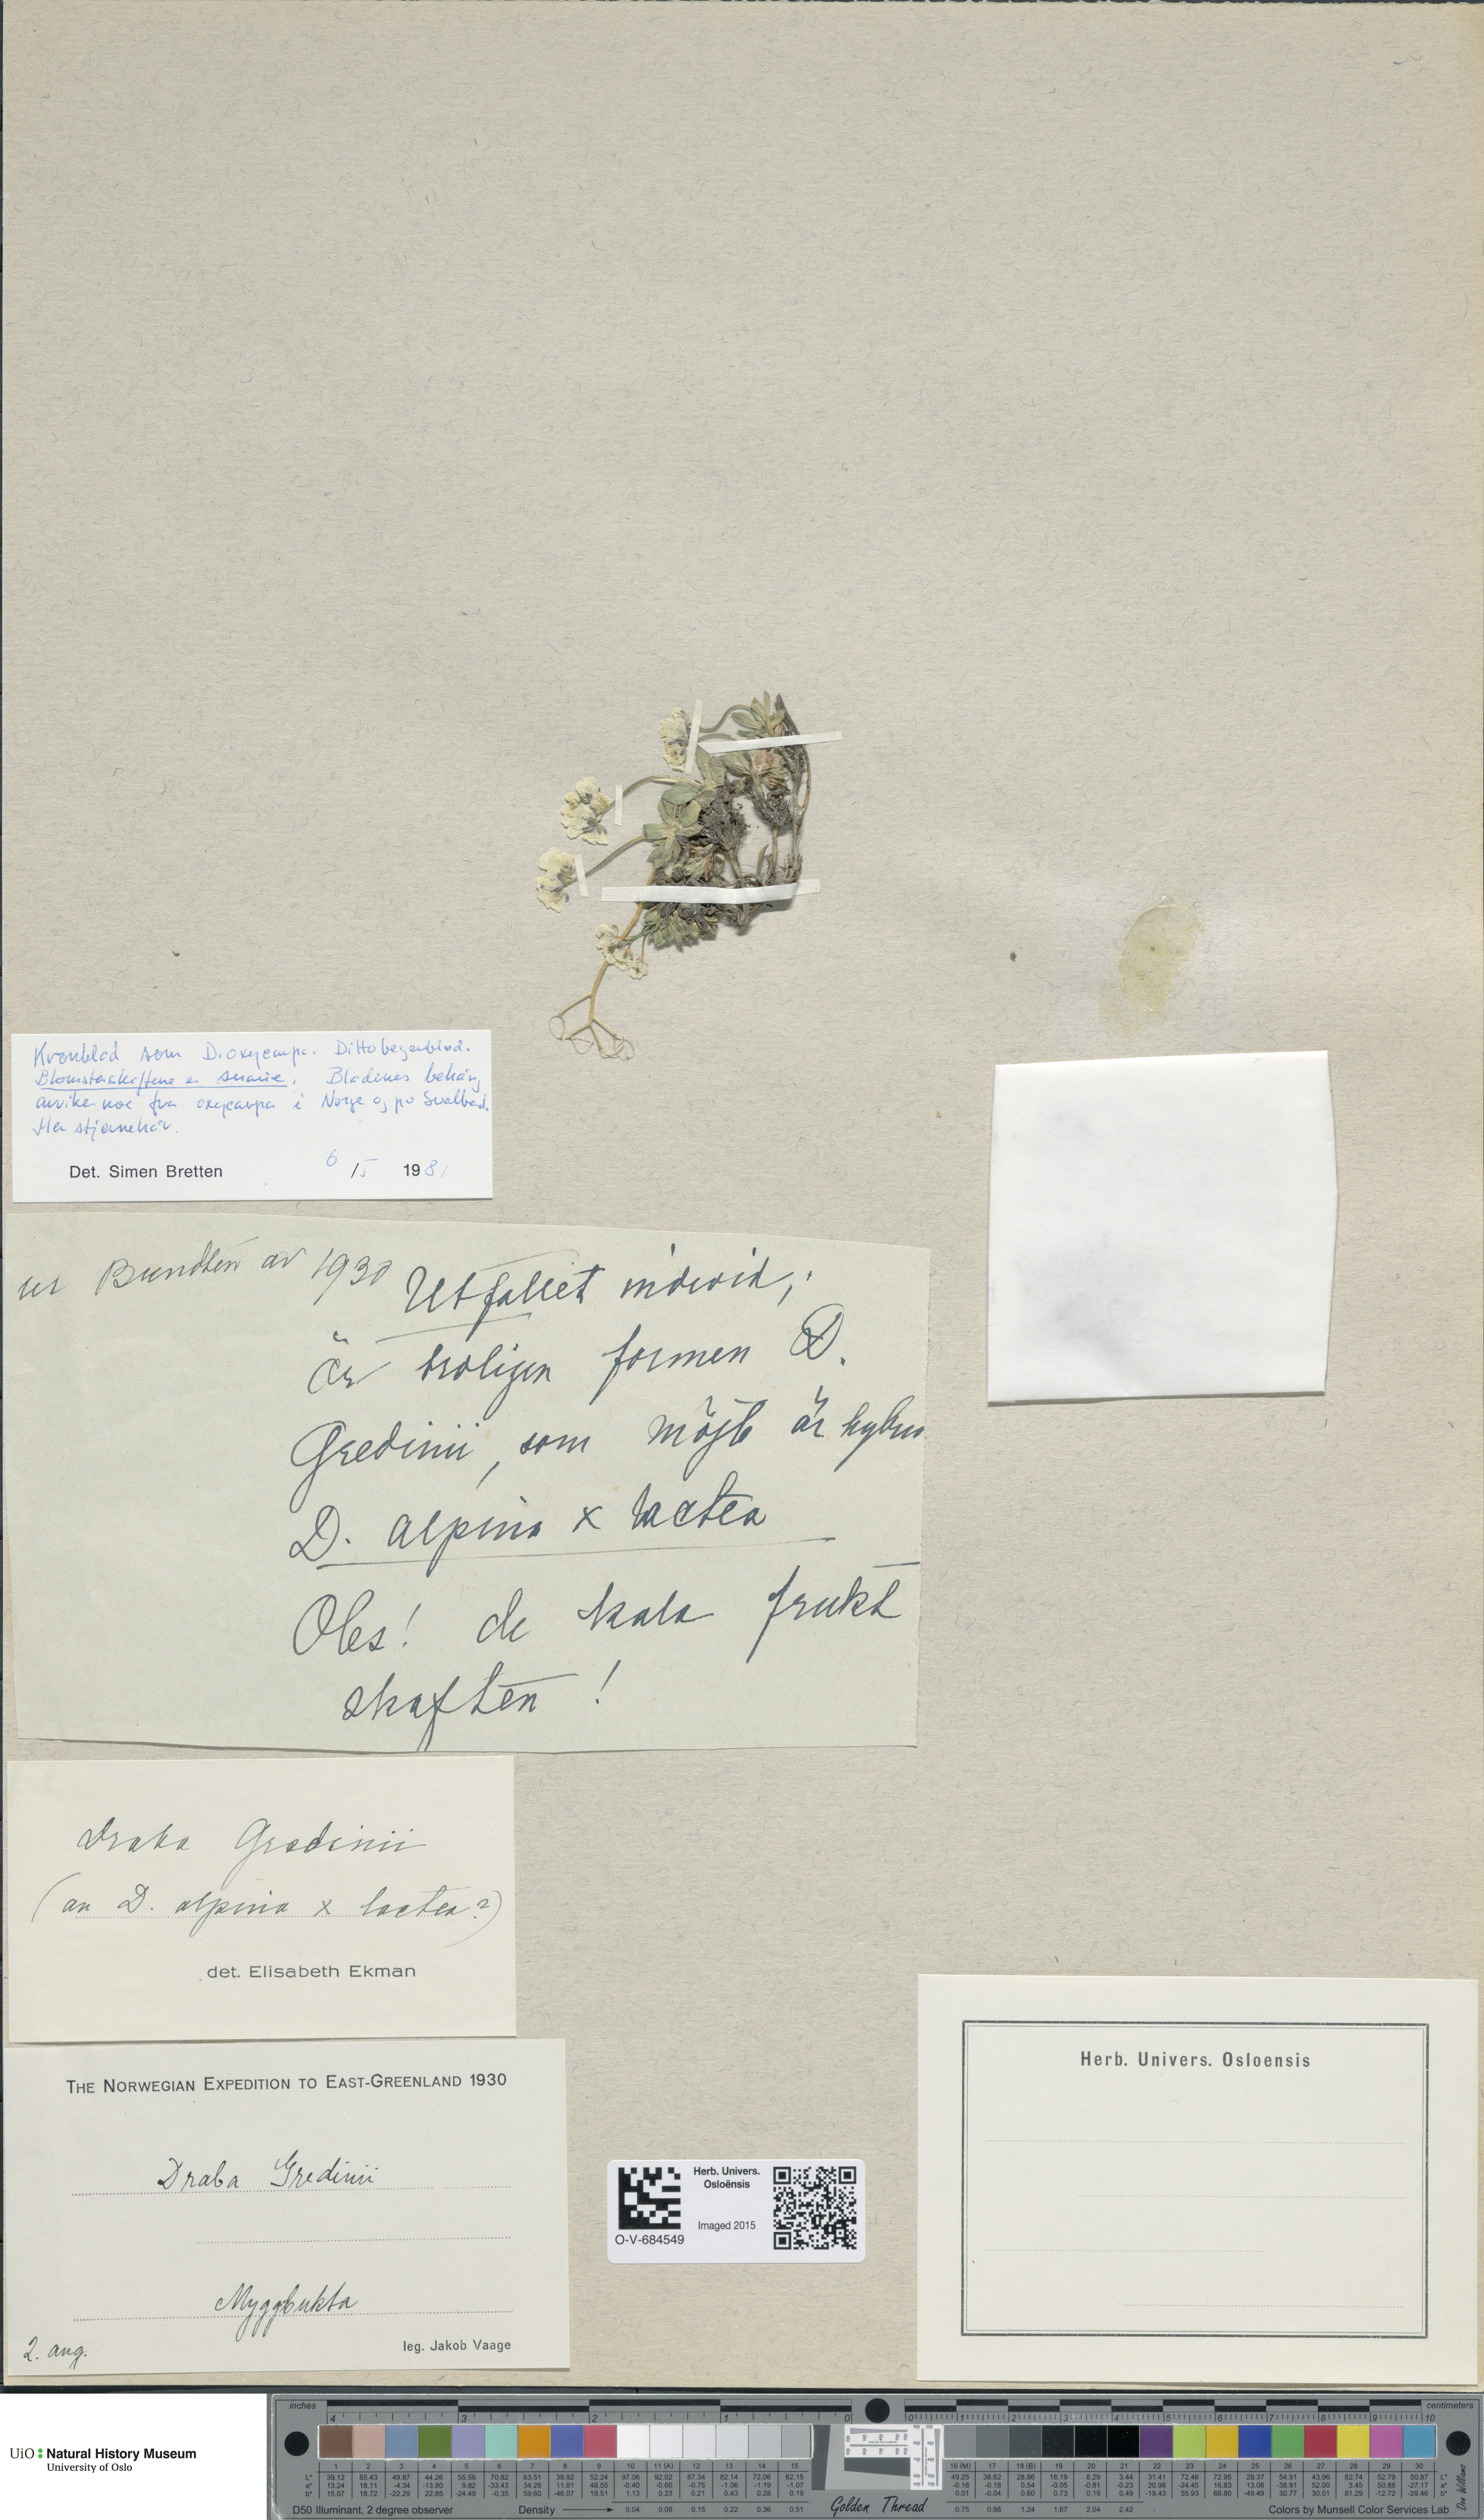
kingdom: Plantae
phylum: Tracheophyta
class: Magnoliopsida
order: Brassicales
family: Brassicaceae
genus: Draba
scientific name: Draba oxycarpa
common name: Sharp-fruited whitlow-grass
